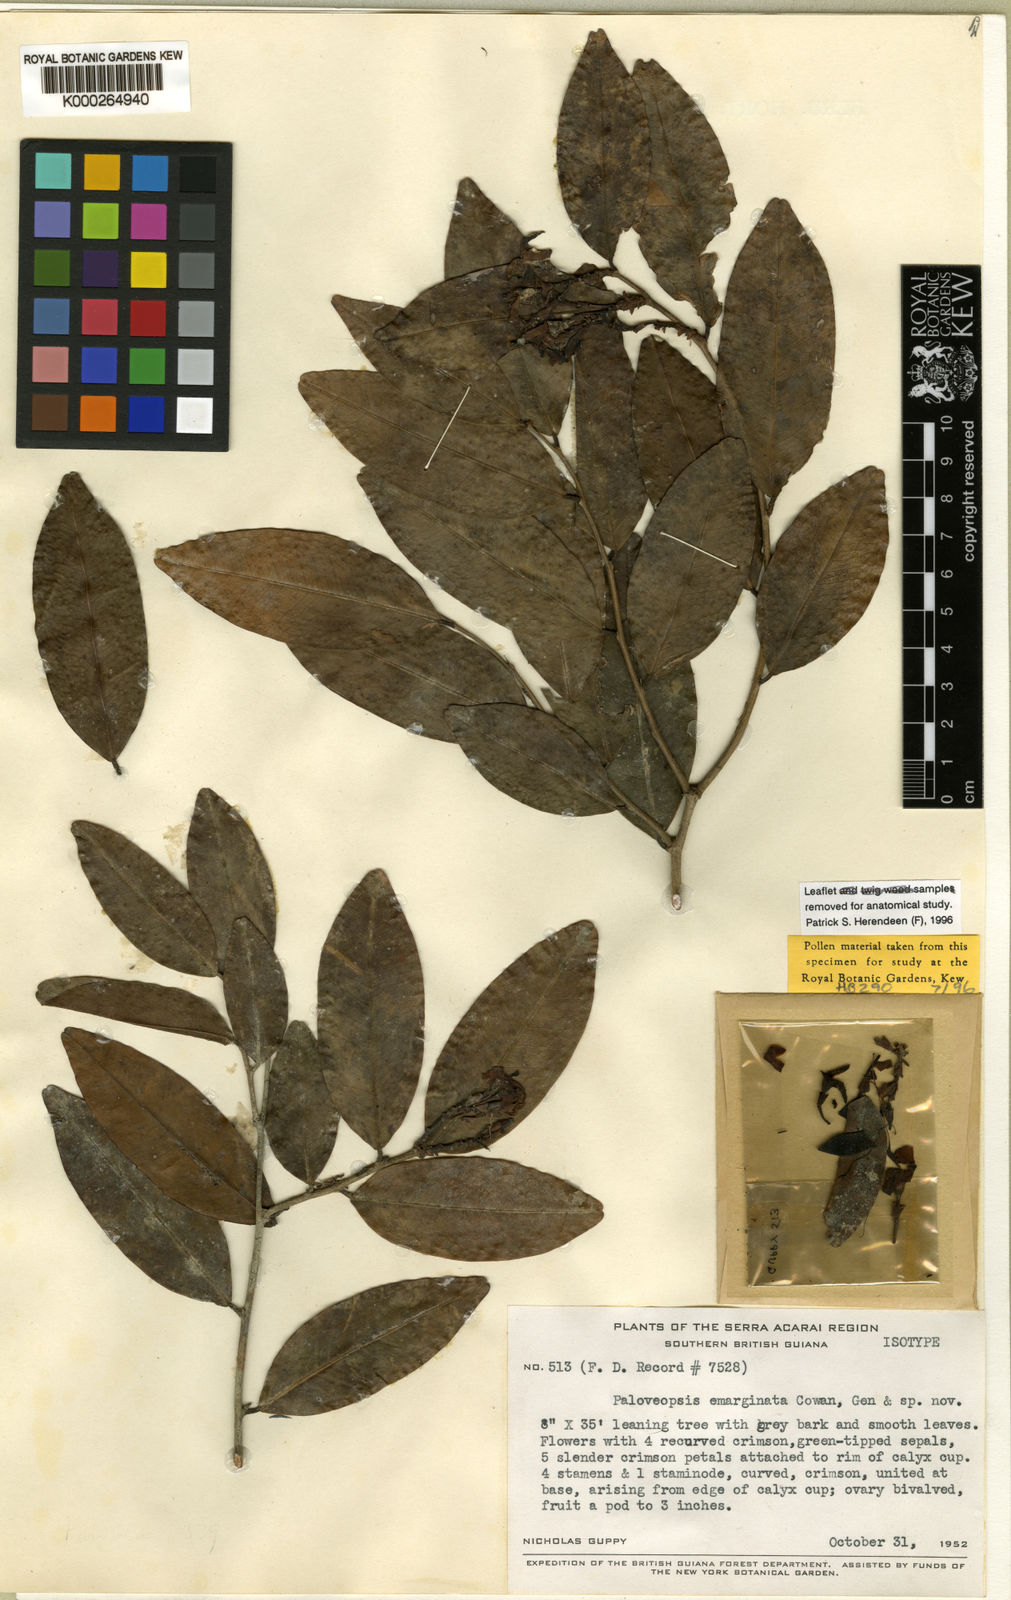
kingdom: Plantae
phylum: Tracheophyta
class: Magnoliopsida
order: Fabales
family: Fabaceae
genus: Paloue
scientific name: Paloue emarginata
